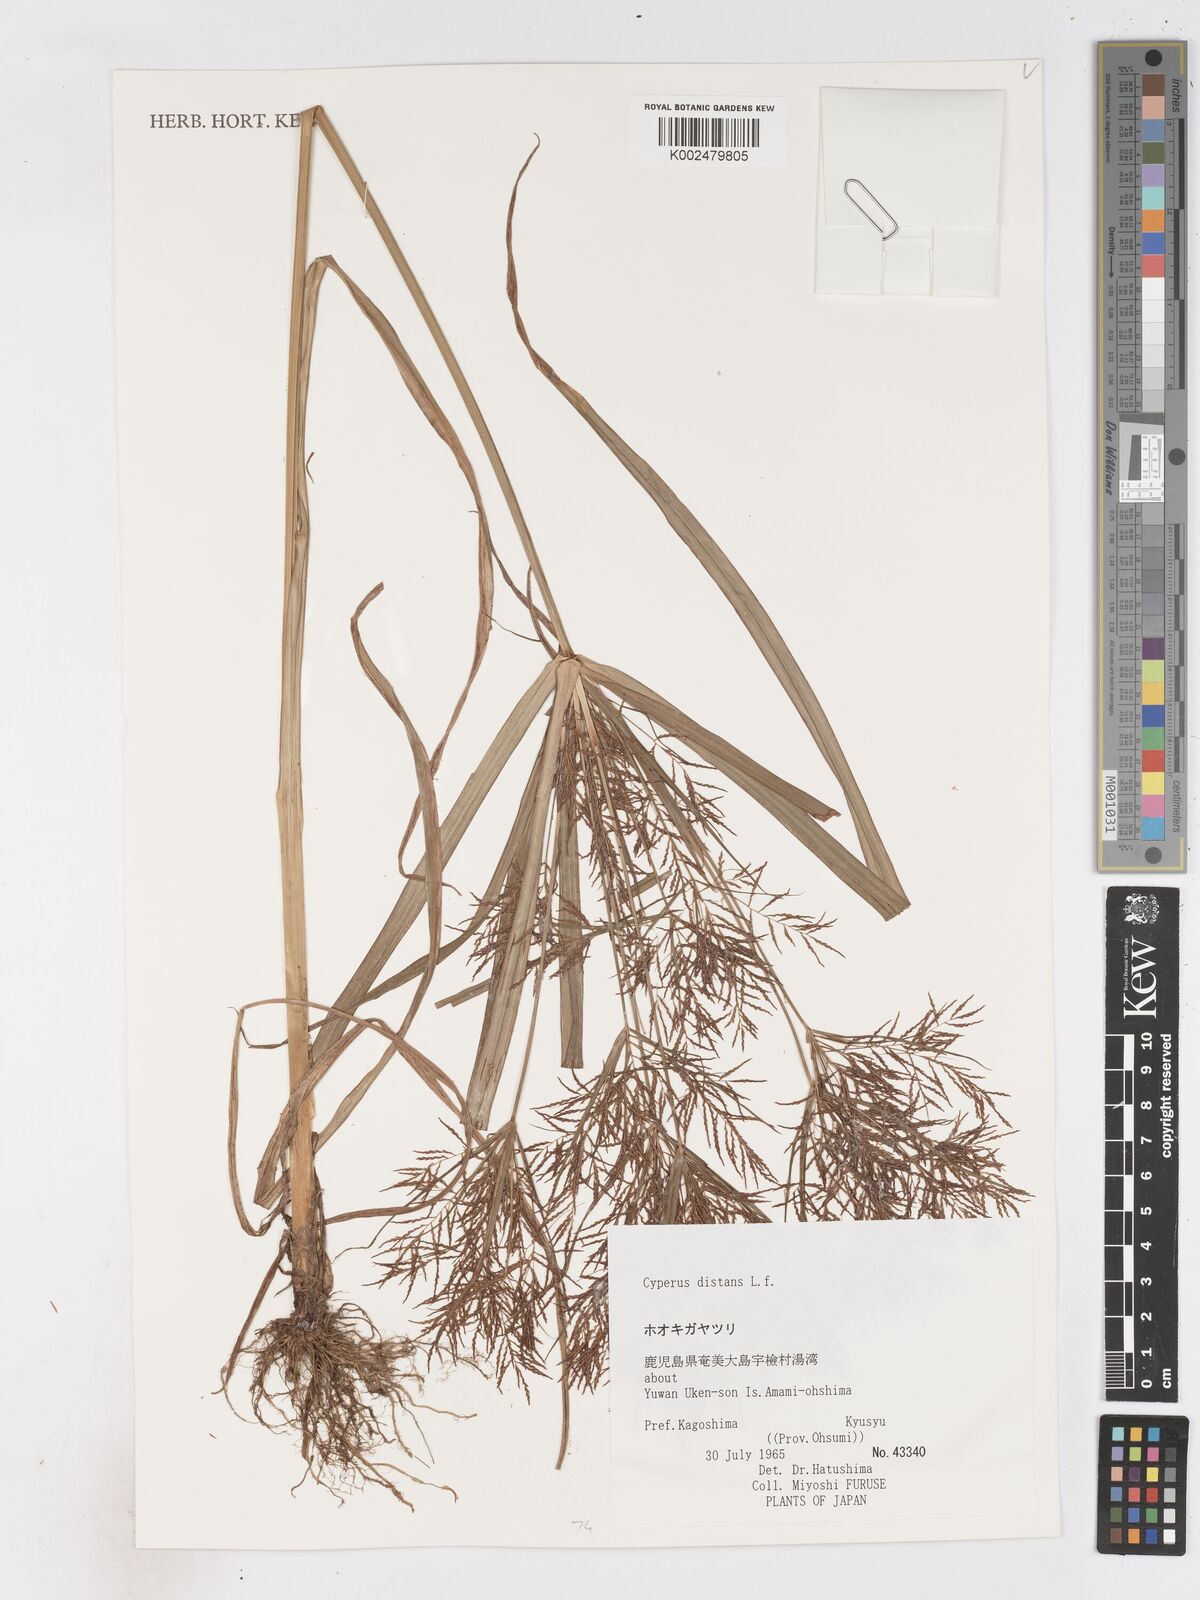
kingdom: Plantae
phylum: Tracheophyta
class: Liliopsida
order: Poales
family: Cyperaceae
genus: Cyperus
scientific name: Cyperus distans
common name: Slender cyperus
